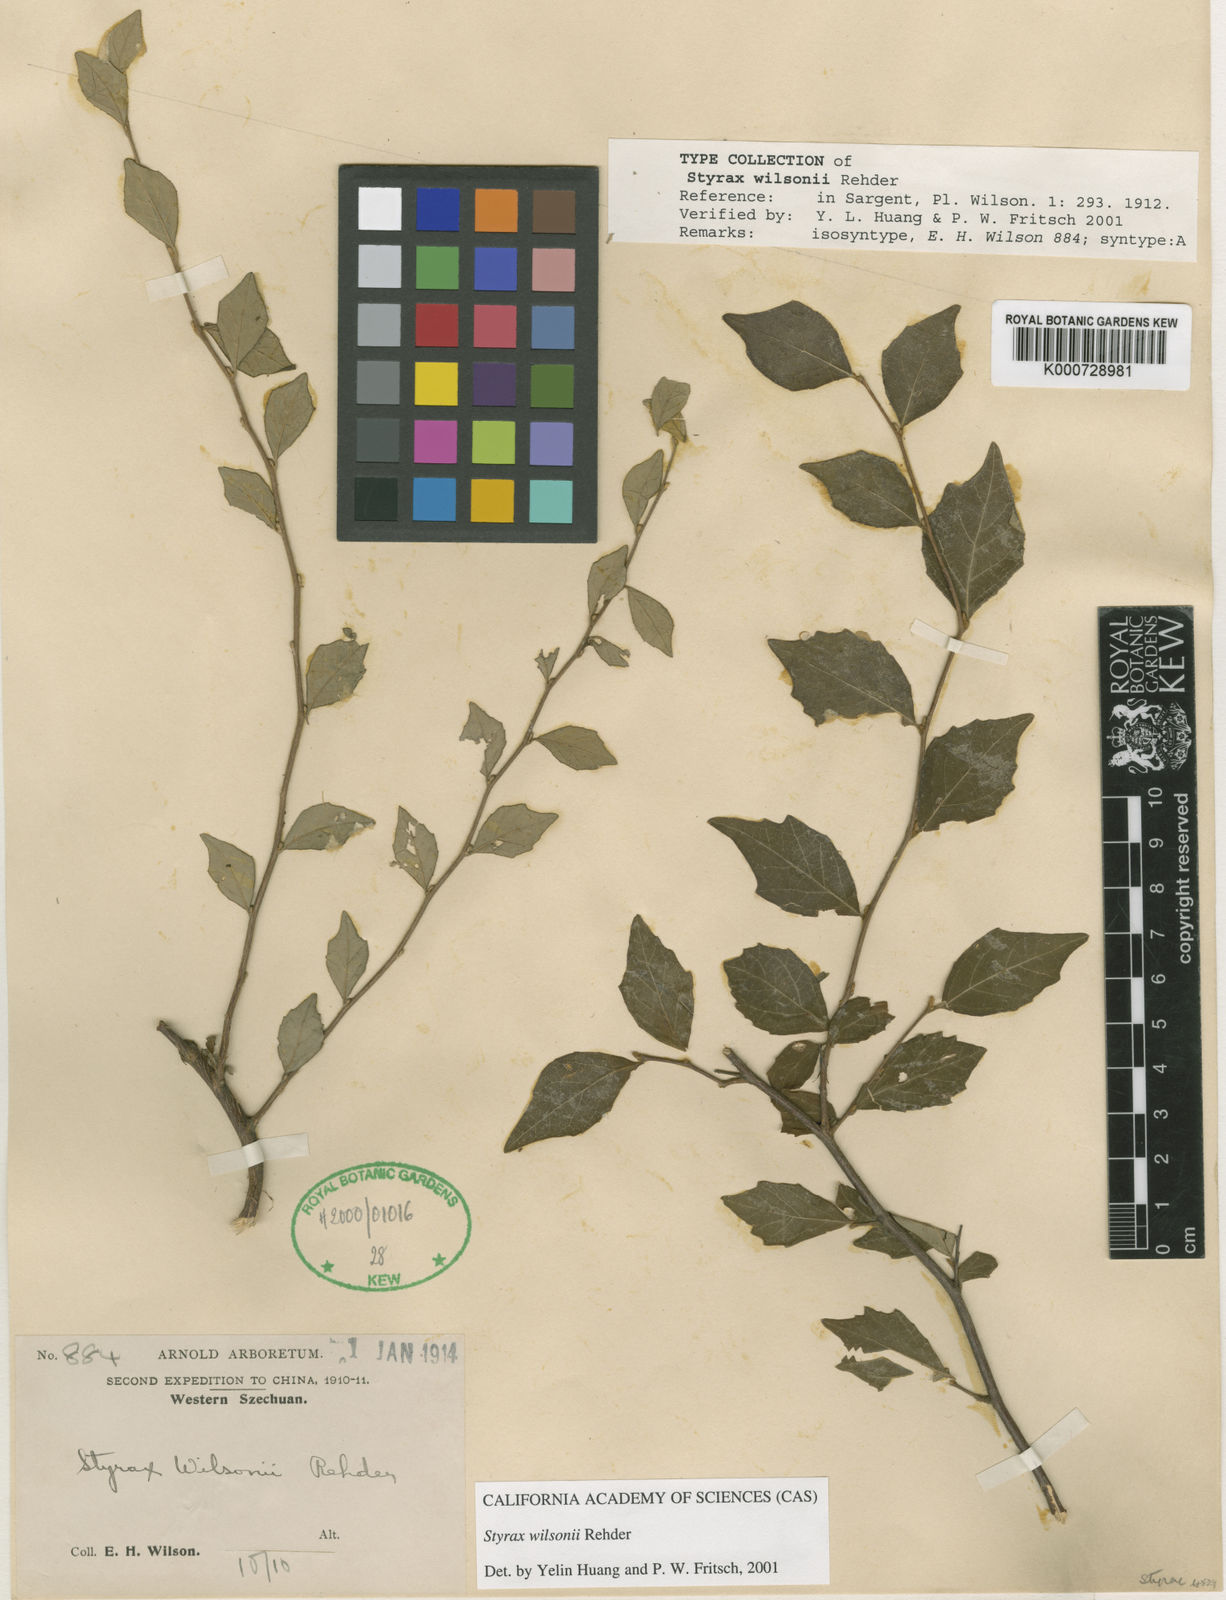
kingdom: Plantae
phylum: Tracheophyta
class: Magnoliopsida
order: Ericales
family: Styracaceae
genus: Styrax
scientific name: Styrax wilsonii
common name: Wilson's snowbell
